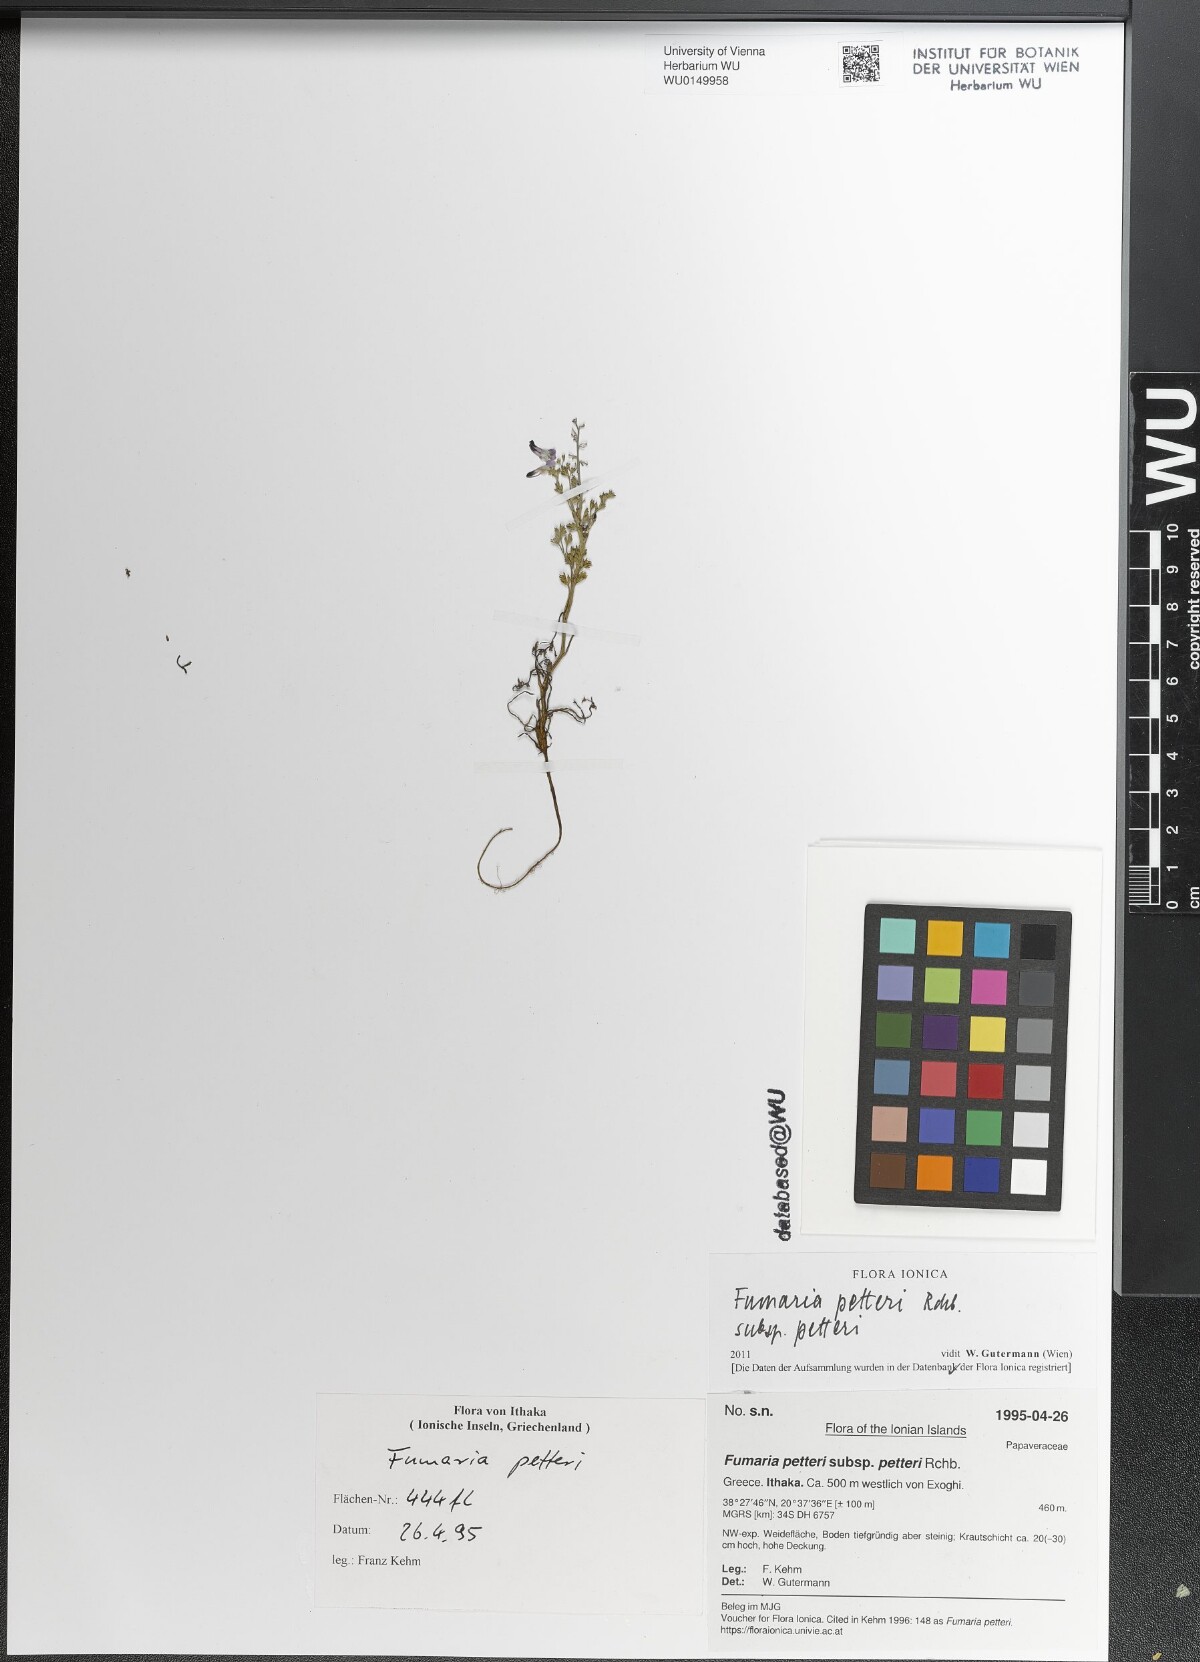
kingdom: Plantae
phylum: Tracheophyta
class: Magnoliopsida
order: Ranunculales
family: Papaveraceae
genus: Fumaria
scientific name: Fumaria petteri
